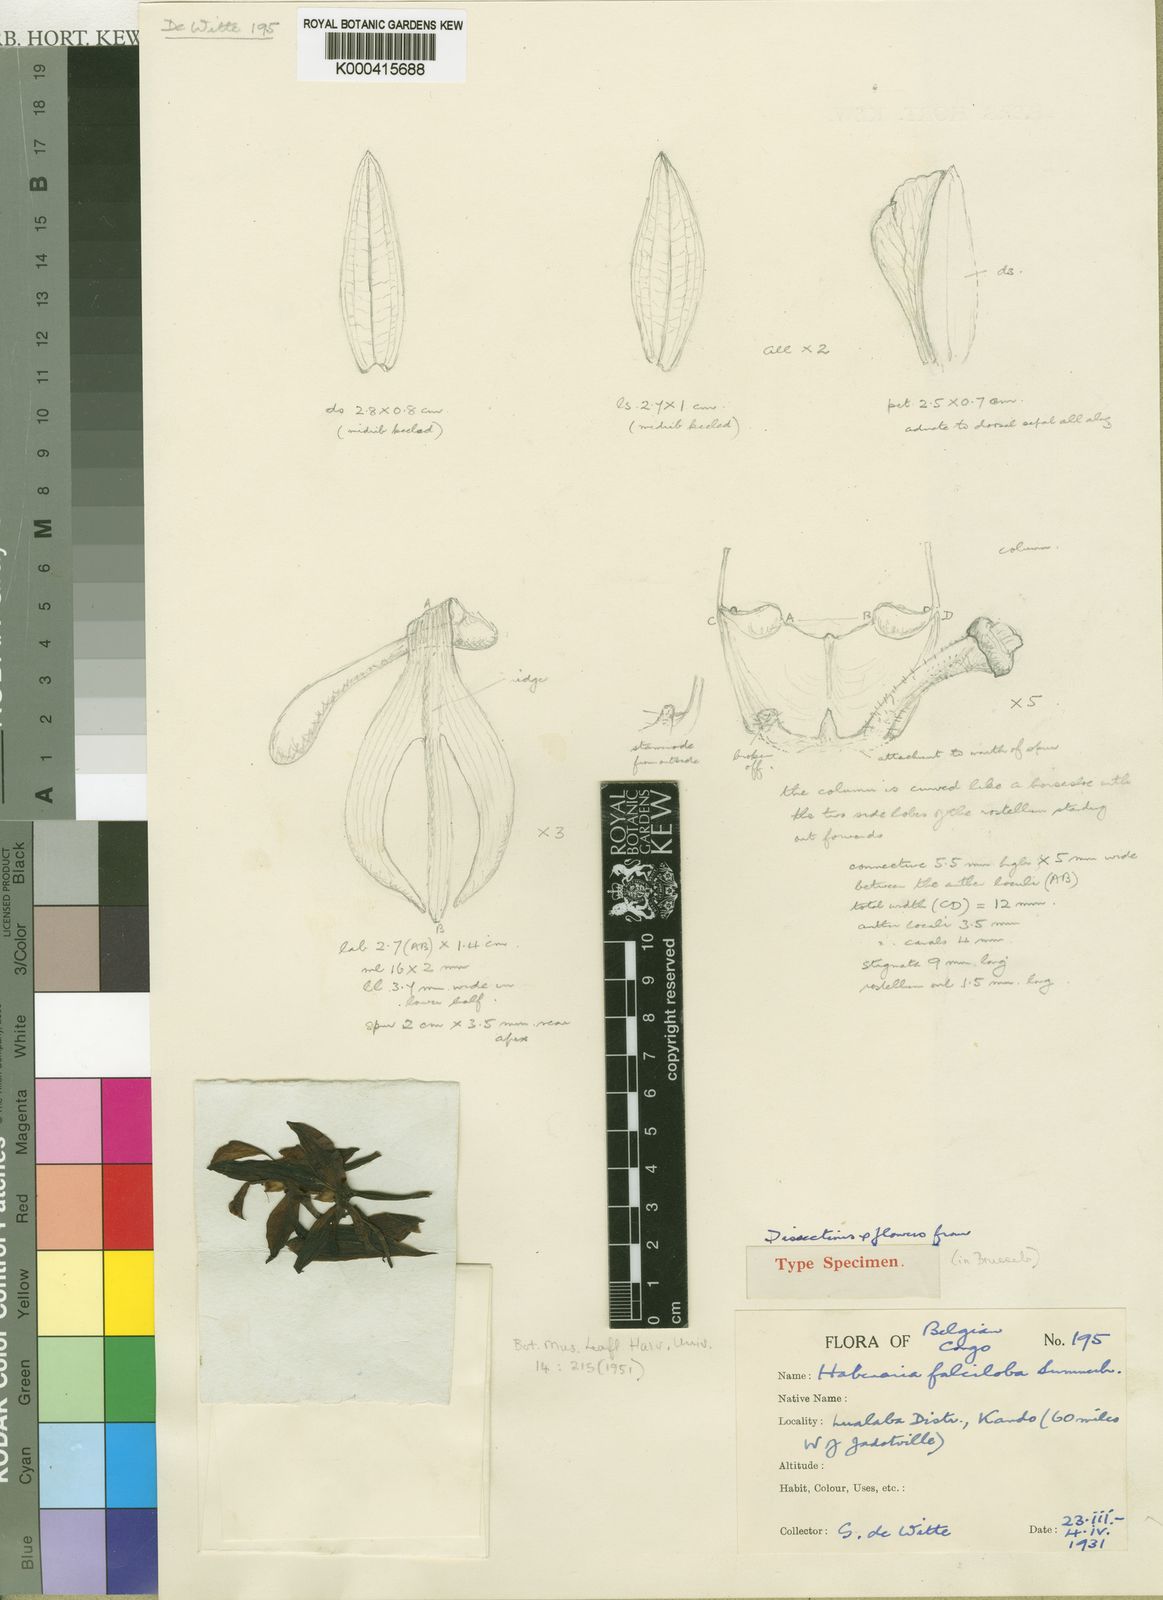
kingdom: Plantae
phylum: Tracheophyta
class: Liliopsida
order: Asparagales
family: Orchidaceae
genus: Habenaria
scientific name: Habenaria falciloba
